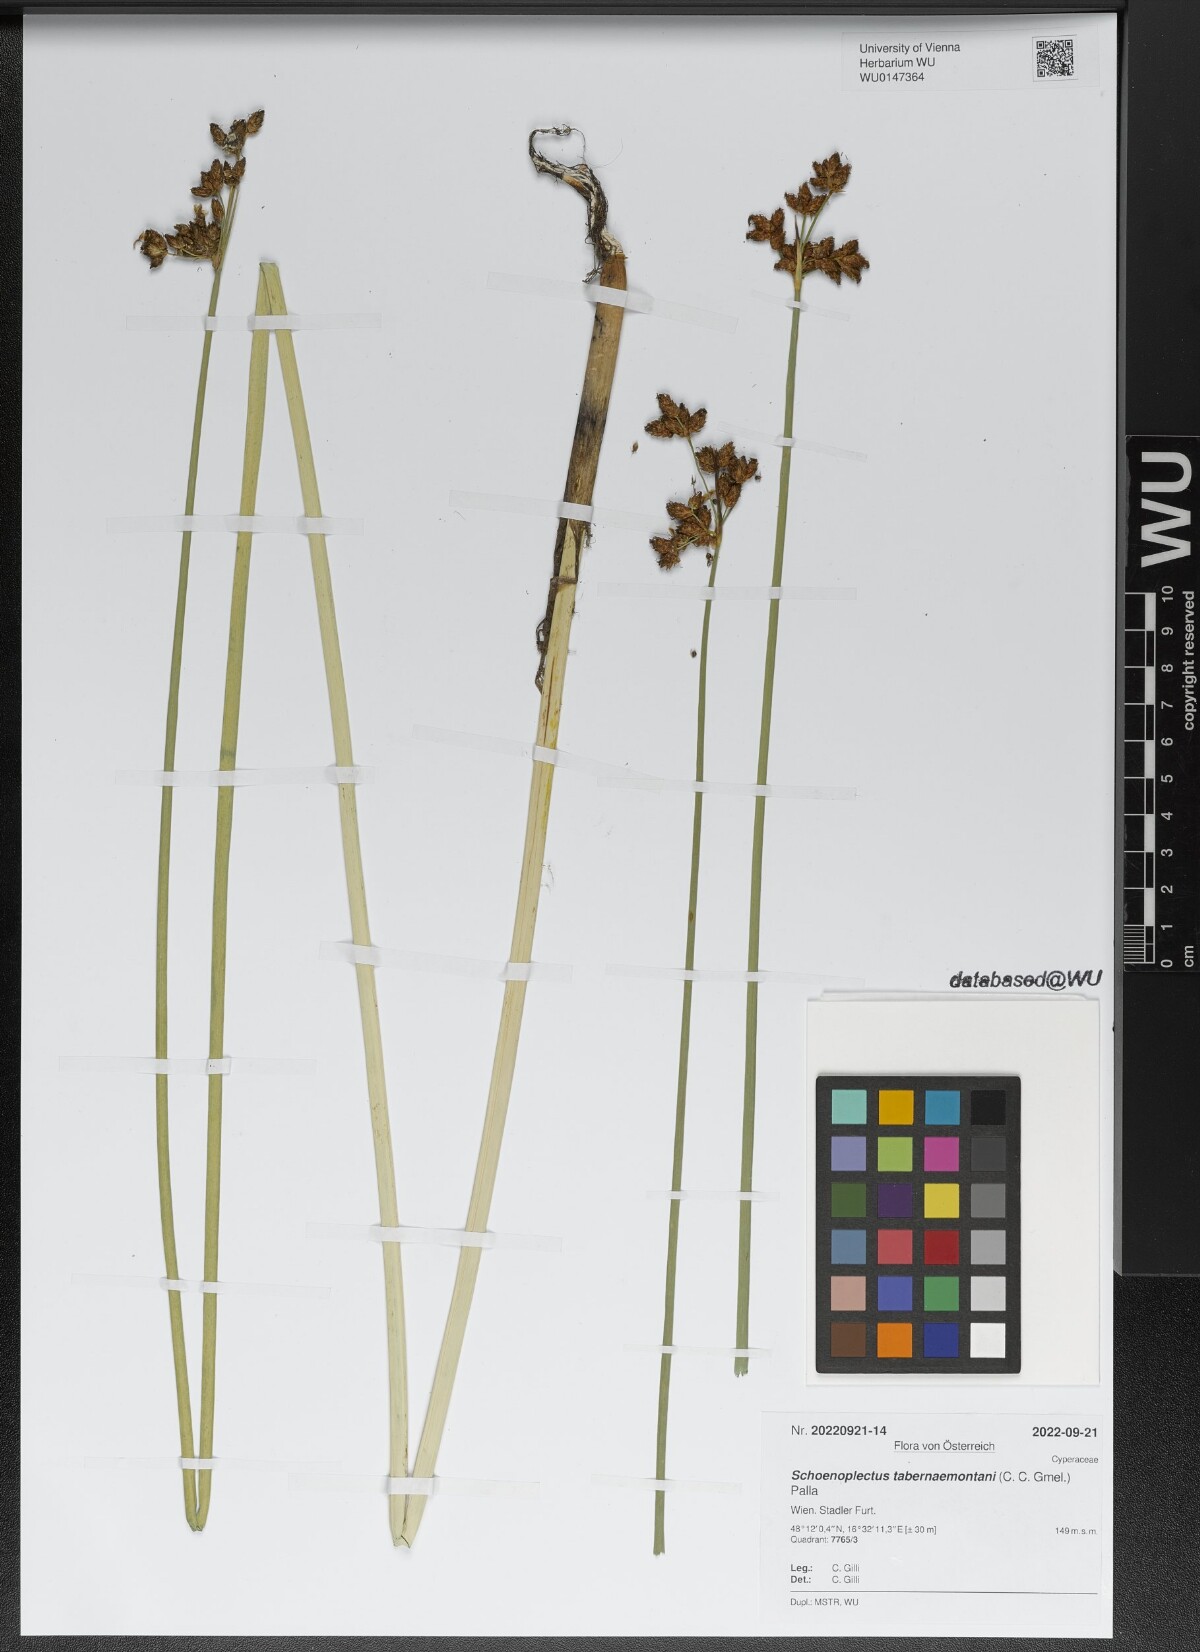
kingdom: Plantae
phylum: Tracheophyta
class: Liliopsida
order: Poales
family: Cyperaceae
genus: Schoenoplectus
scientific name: Schoenoplectus tabernaemontani
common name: Grey club-rush
